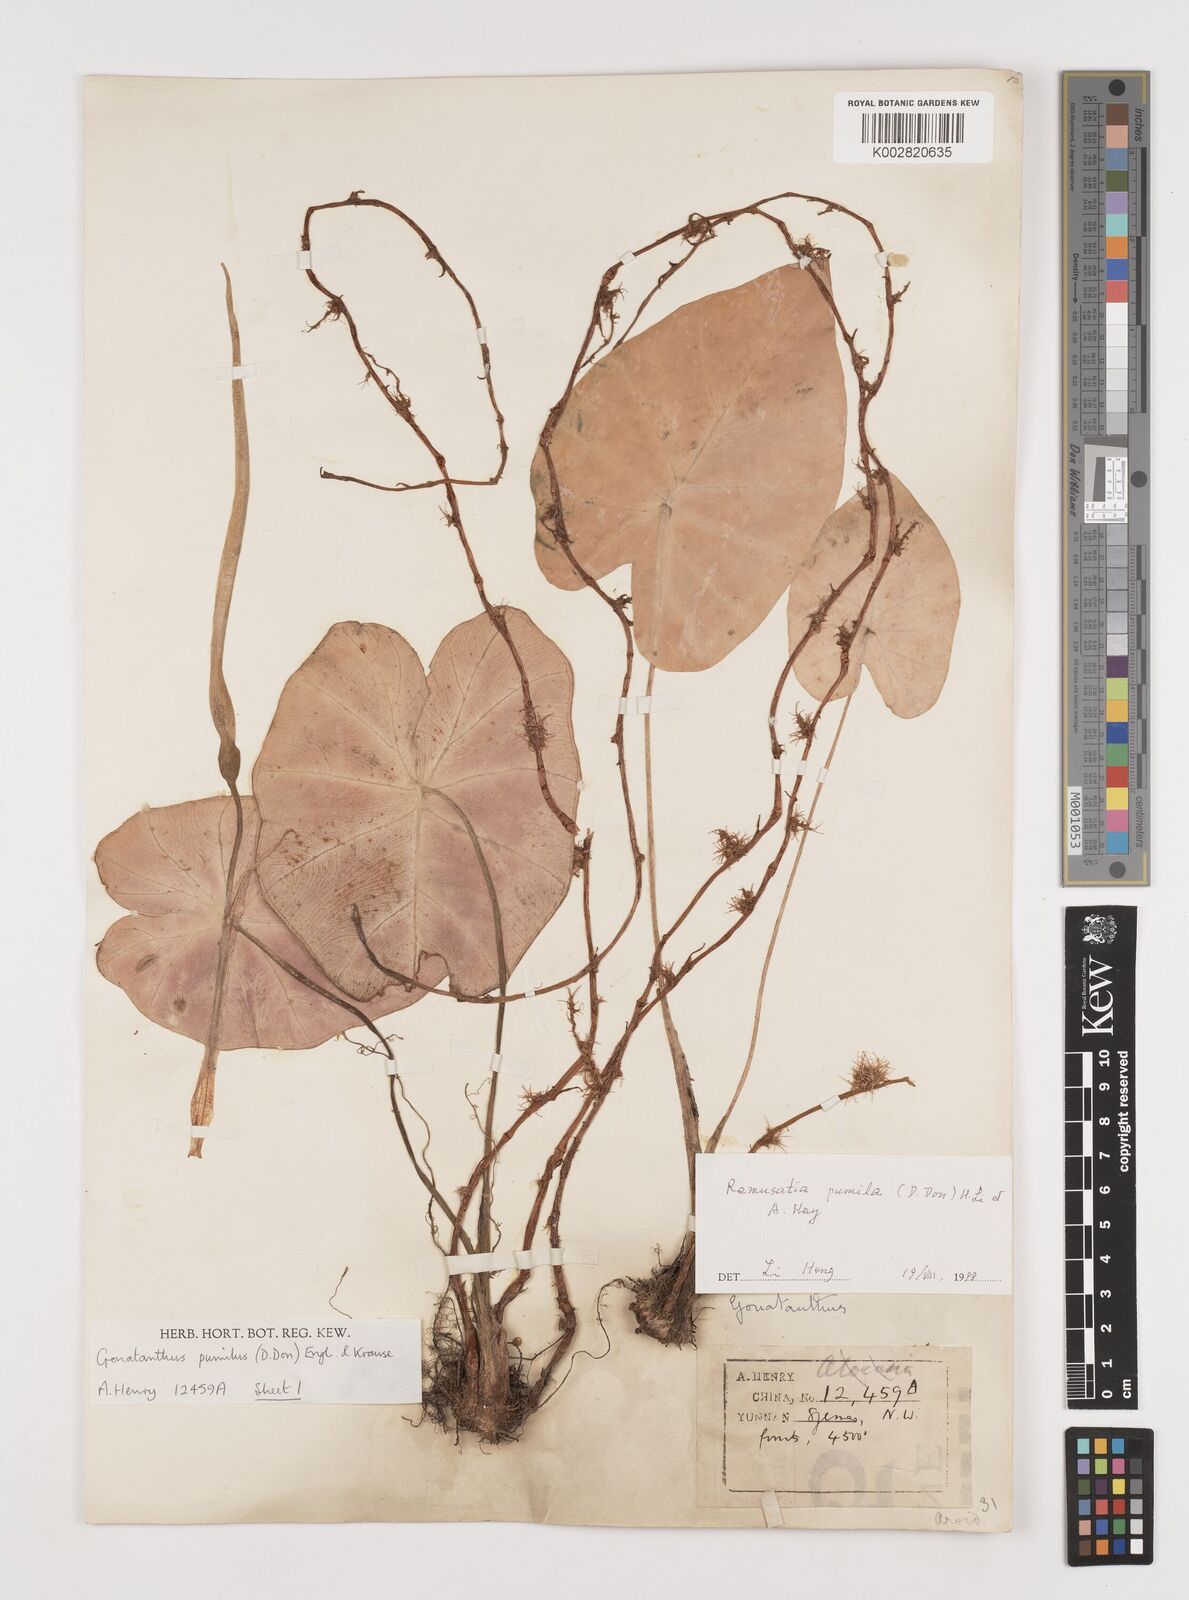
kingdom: Plantae
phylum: Tracheophyta
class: Liliopsida
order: Alismatales
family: Araceae
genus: Remusatia
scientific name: Remusatia pumila
